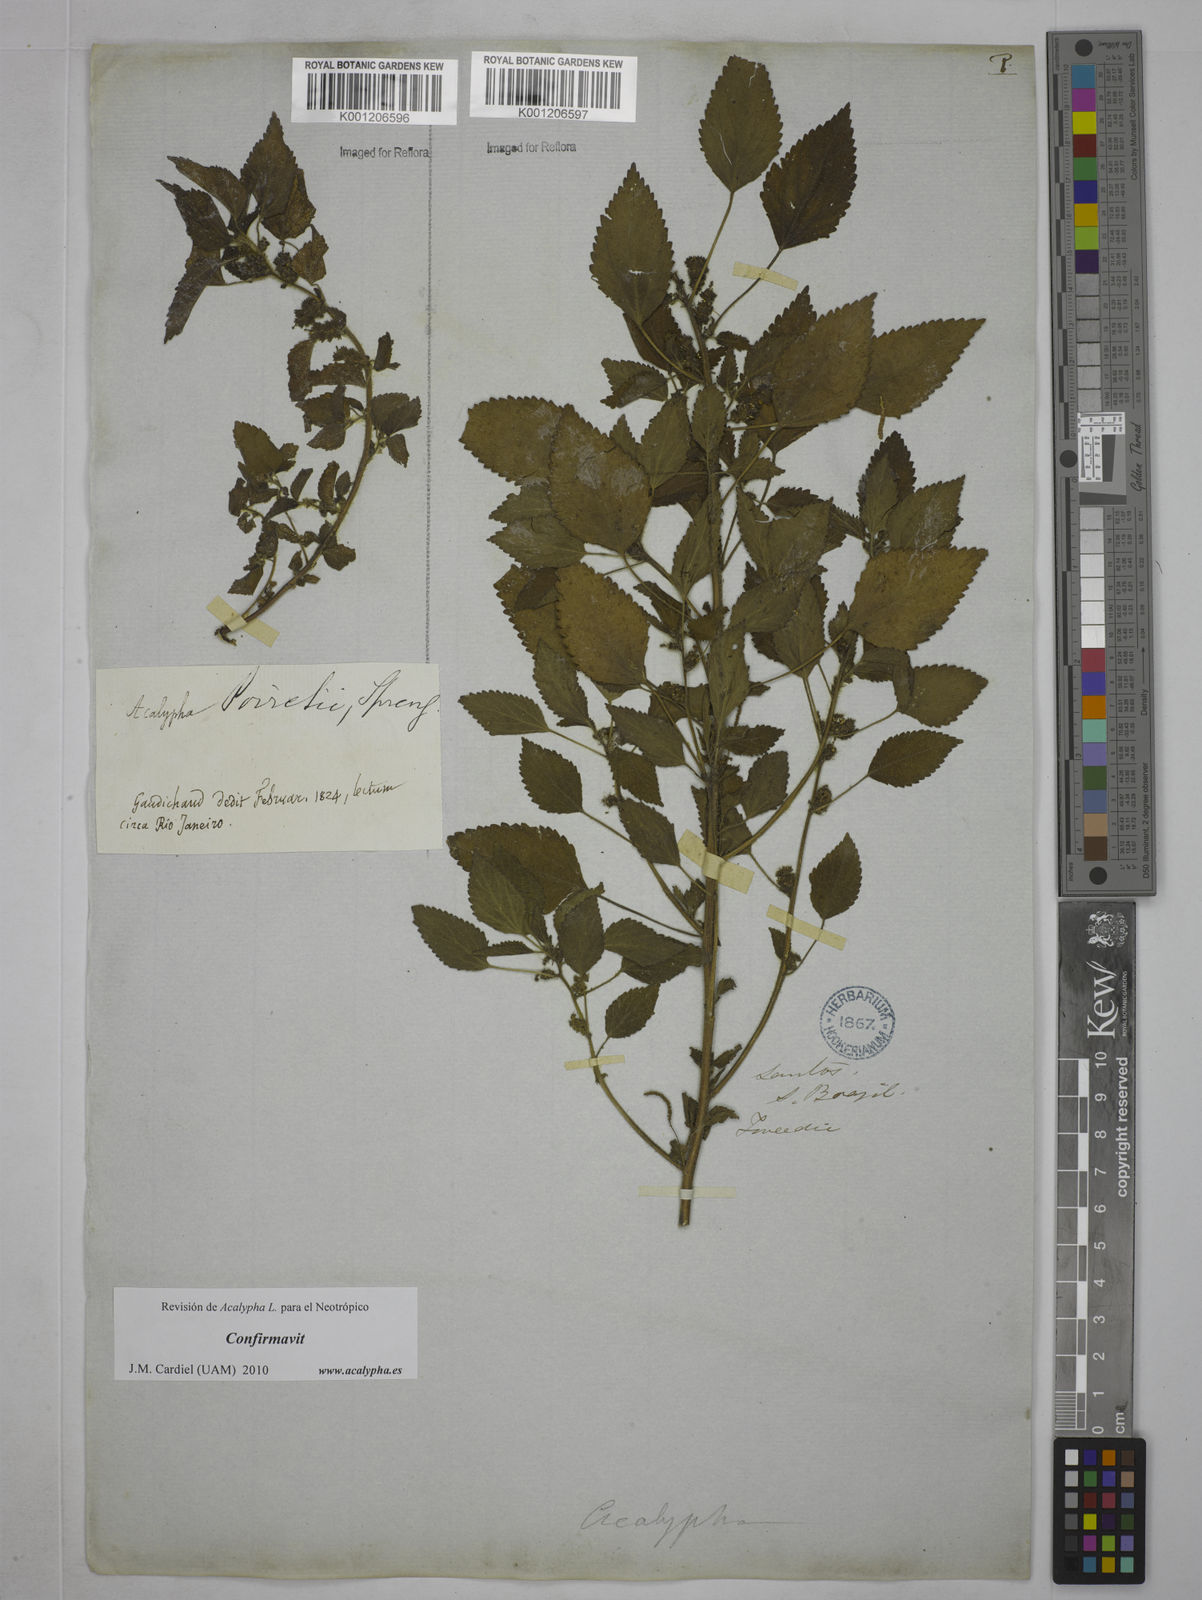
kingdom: Plantae
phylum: Tracheophyta
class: Magnoliopsida
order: Malpighiales
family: Euphorbiaceae
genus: Acalypha
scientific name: Acalypha poiretii
